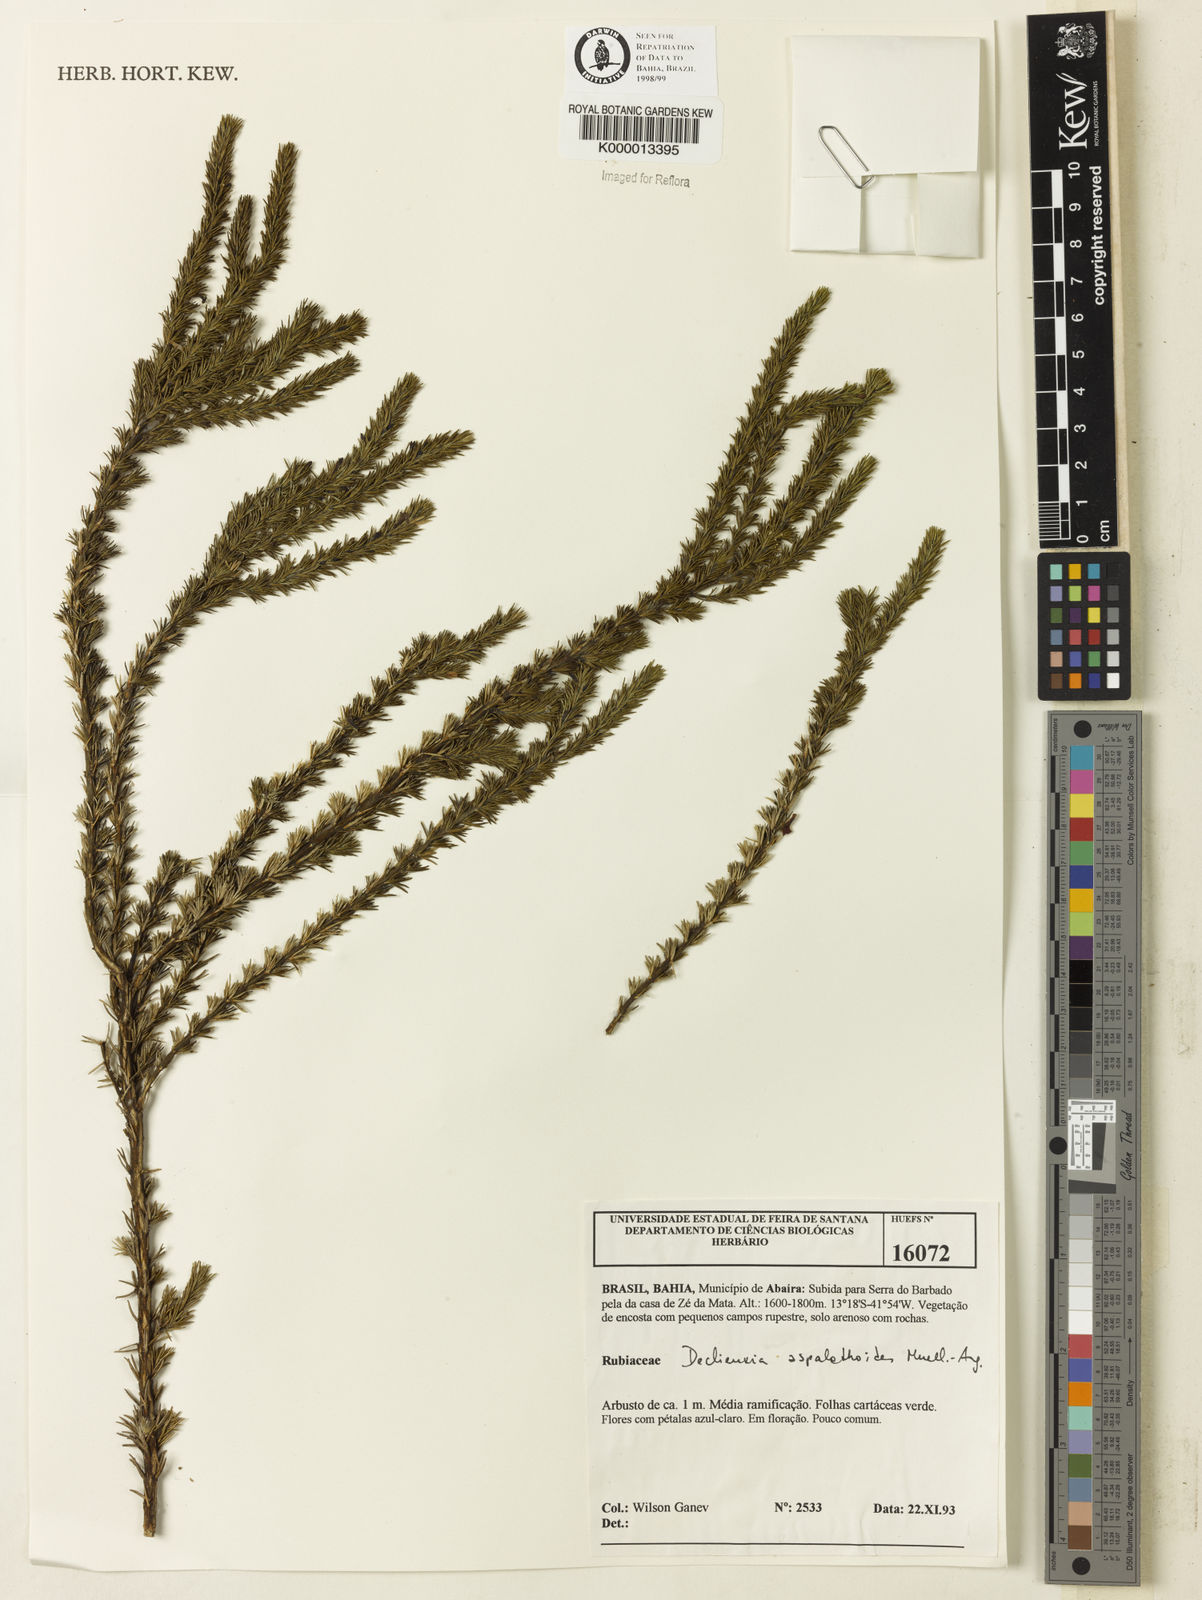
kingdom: Plantae
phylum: Tracheophyta
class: Magnoliopsida
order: Gentianales
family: Rubiaceae
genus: Declieuxia
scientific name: Declieuxia aspalathoides
